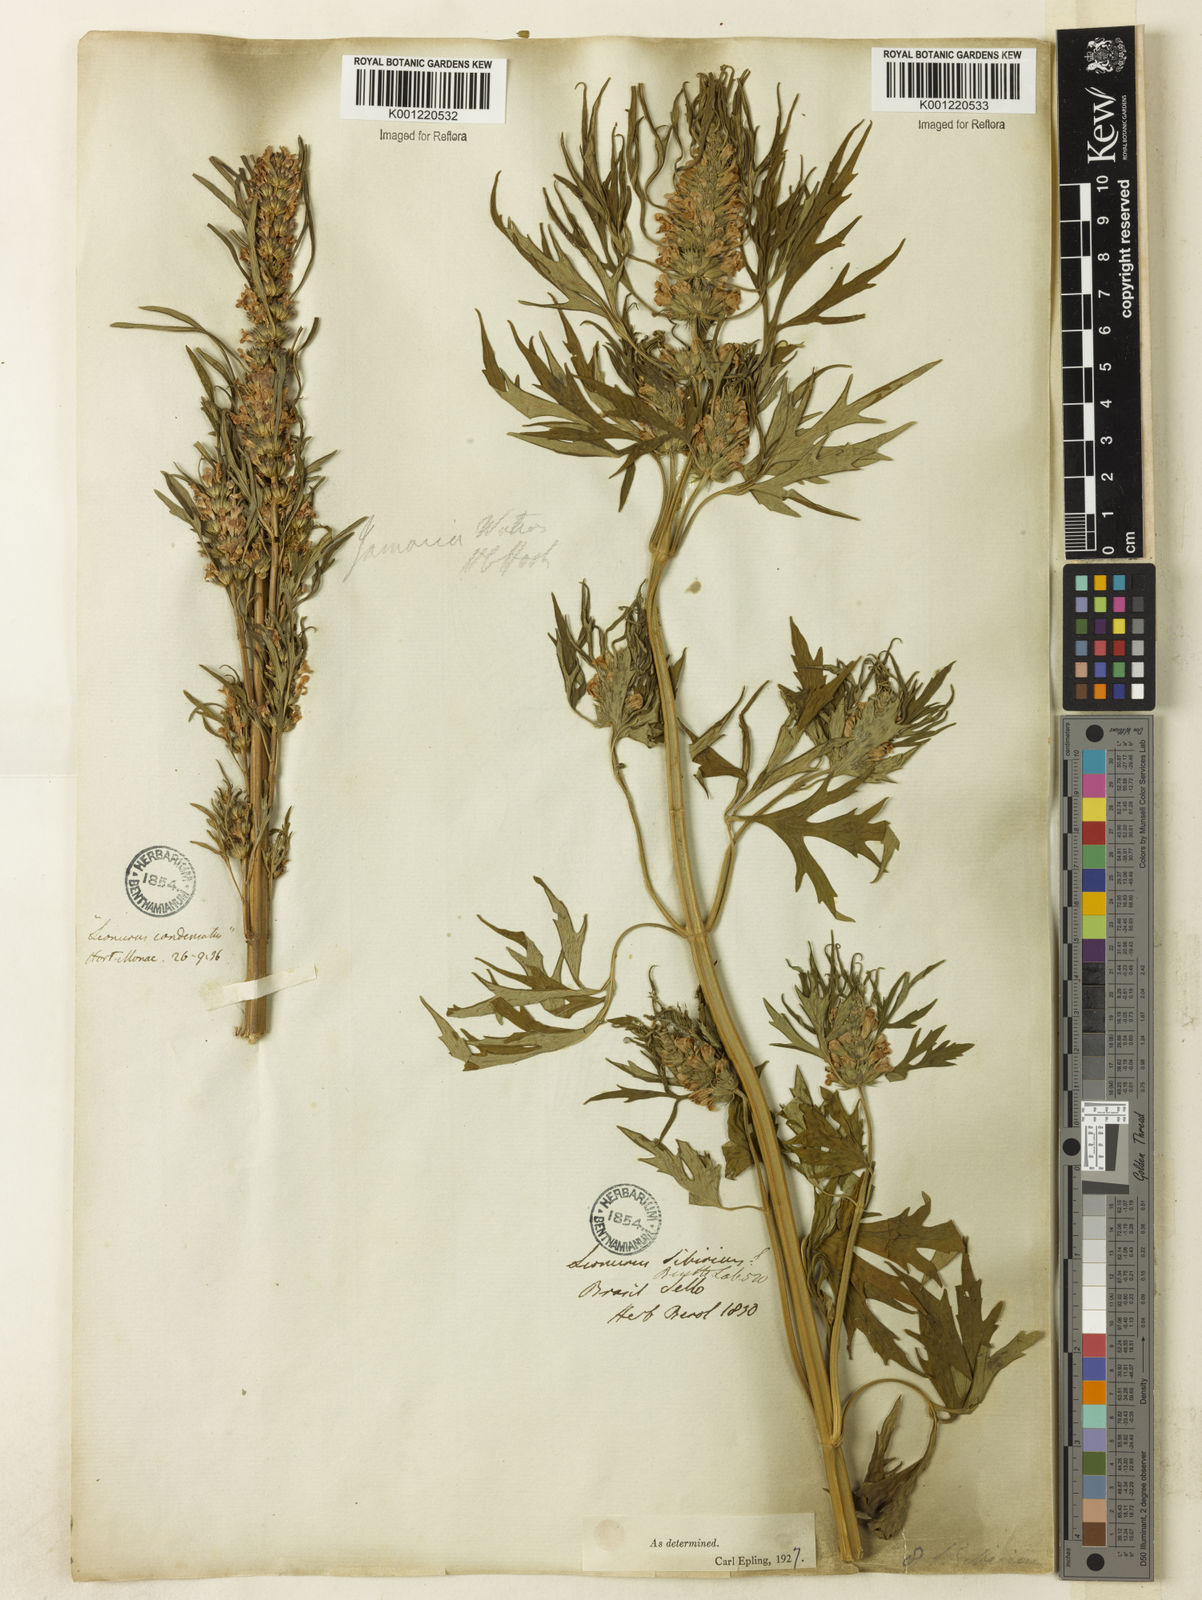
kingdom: Plantae
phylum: Tracheophyta
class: Magnoliopsida
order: Lamiales
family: Lamiaceae
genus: Leonurus
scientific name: Leonurus japonicus
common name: Honeyweed
